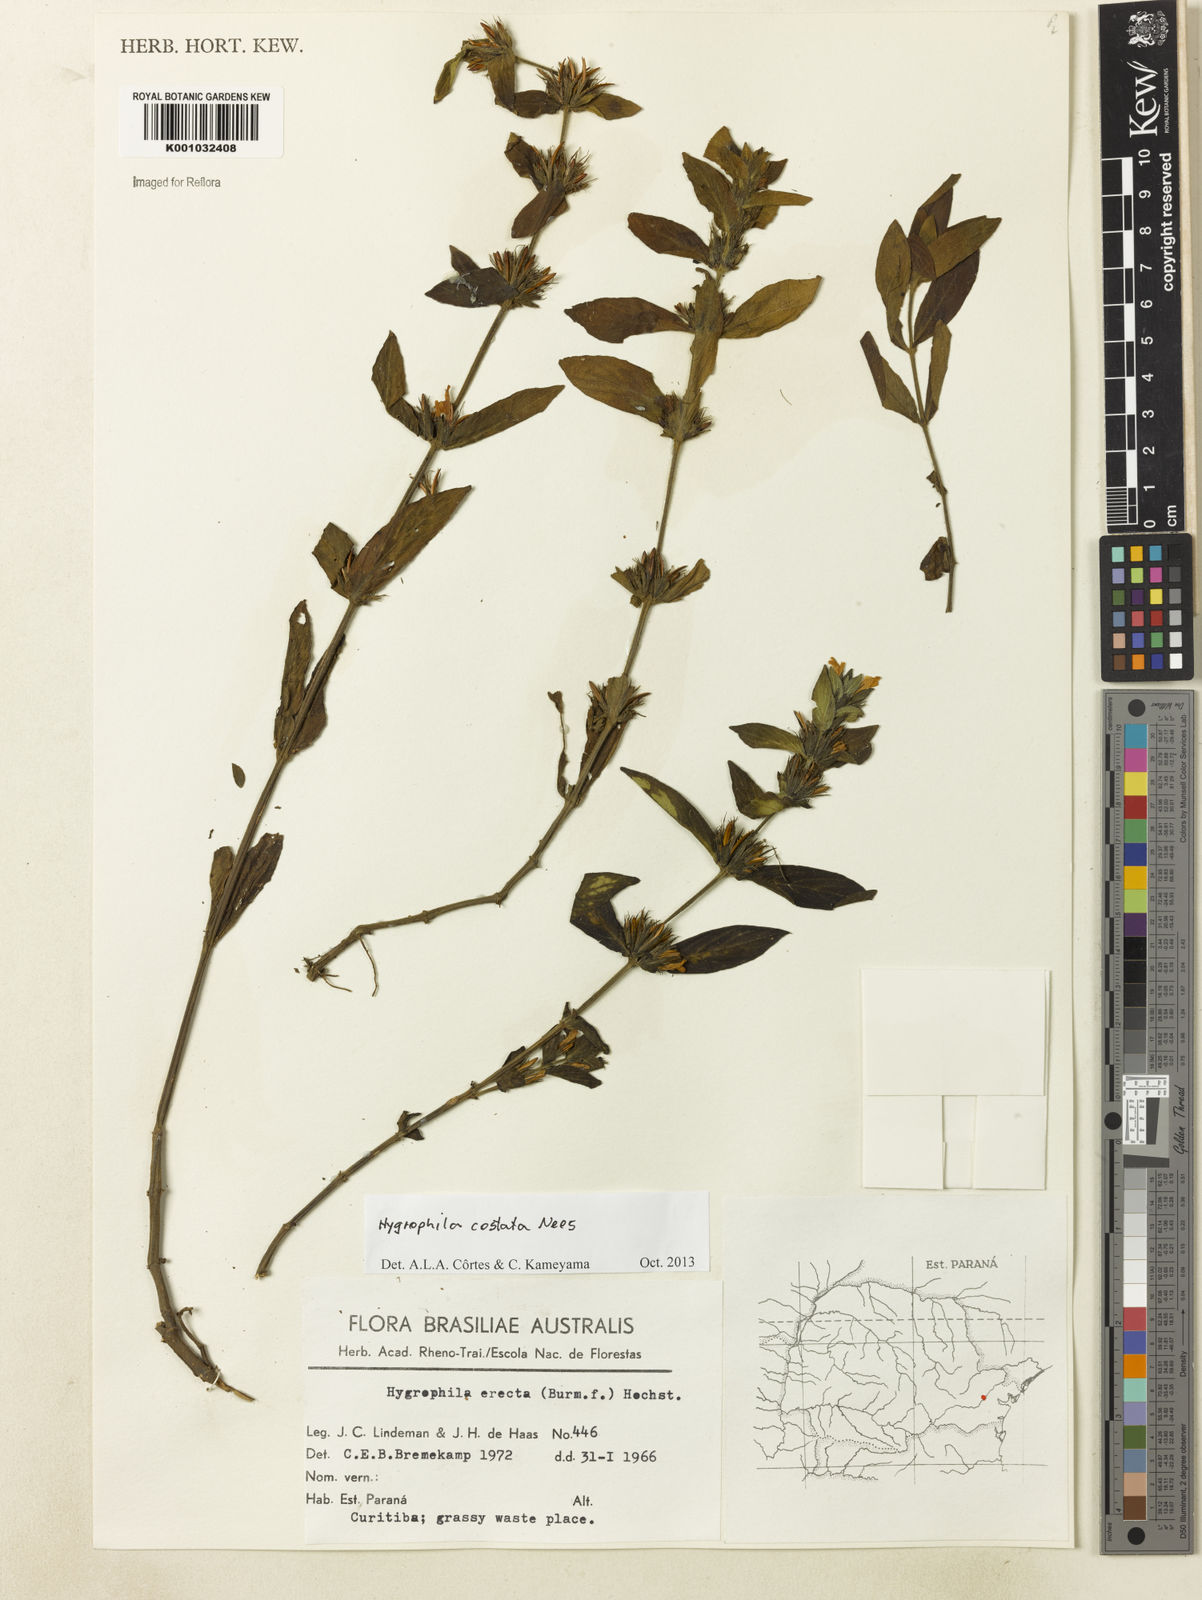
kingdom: Plantae
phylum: Tracheophyta
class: Magnoliopsida
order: Lamiales
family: Acanthaceae
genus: Hygrophila
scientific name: Hygrophila costata
